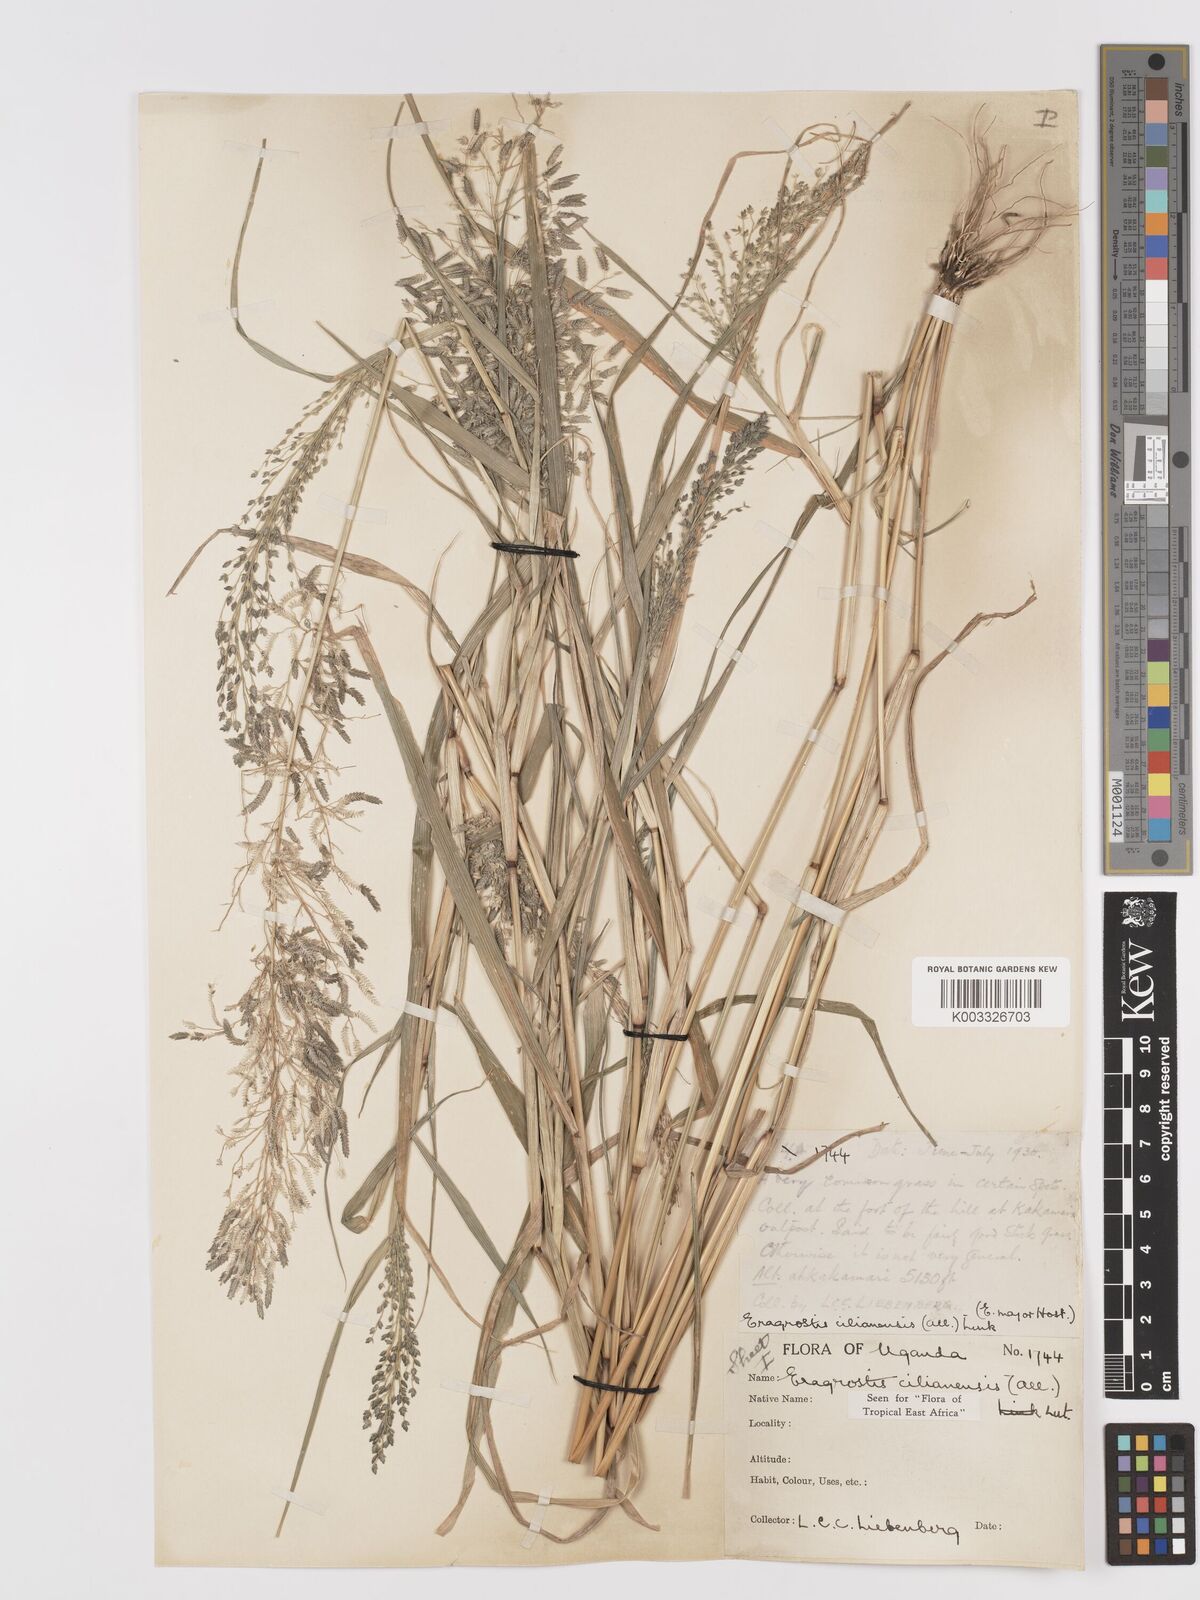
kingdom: Plantae
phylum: Tracheophyta
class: Liliopsida
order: Poales
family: Poaceae
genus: Eragrostis
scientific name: Eragrostis cilianensis
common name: Stinkgrass
